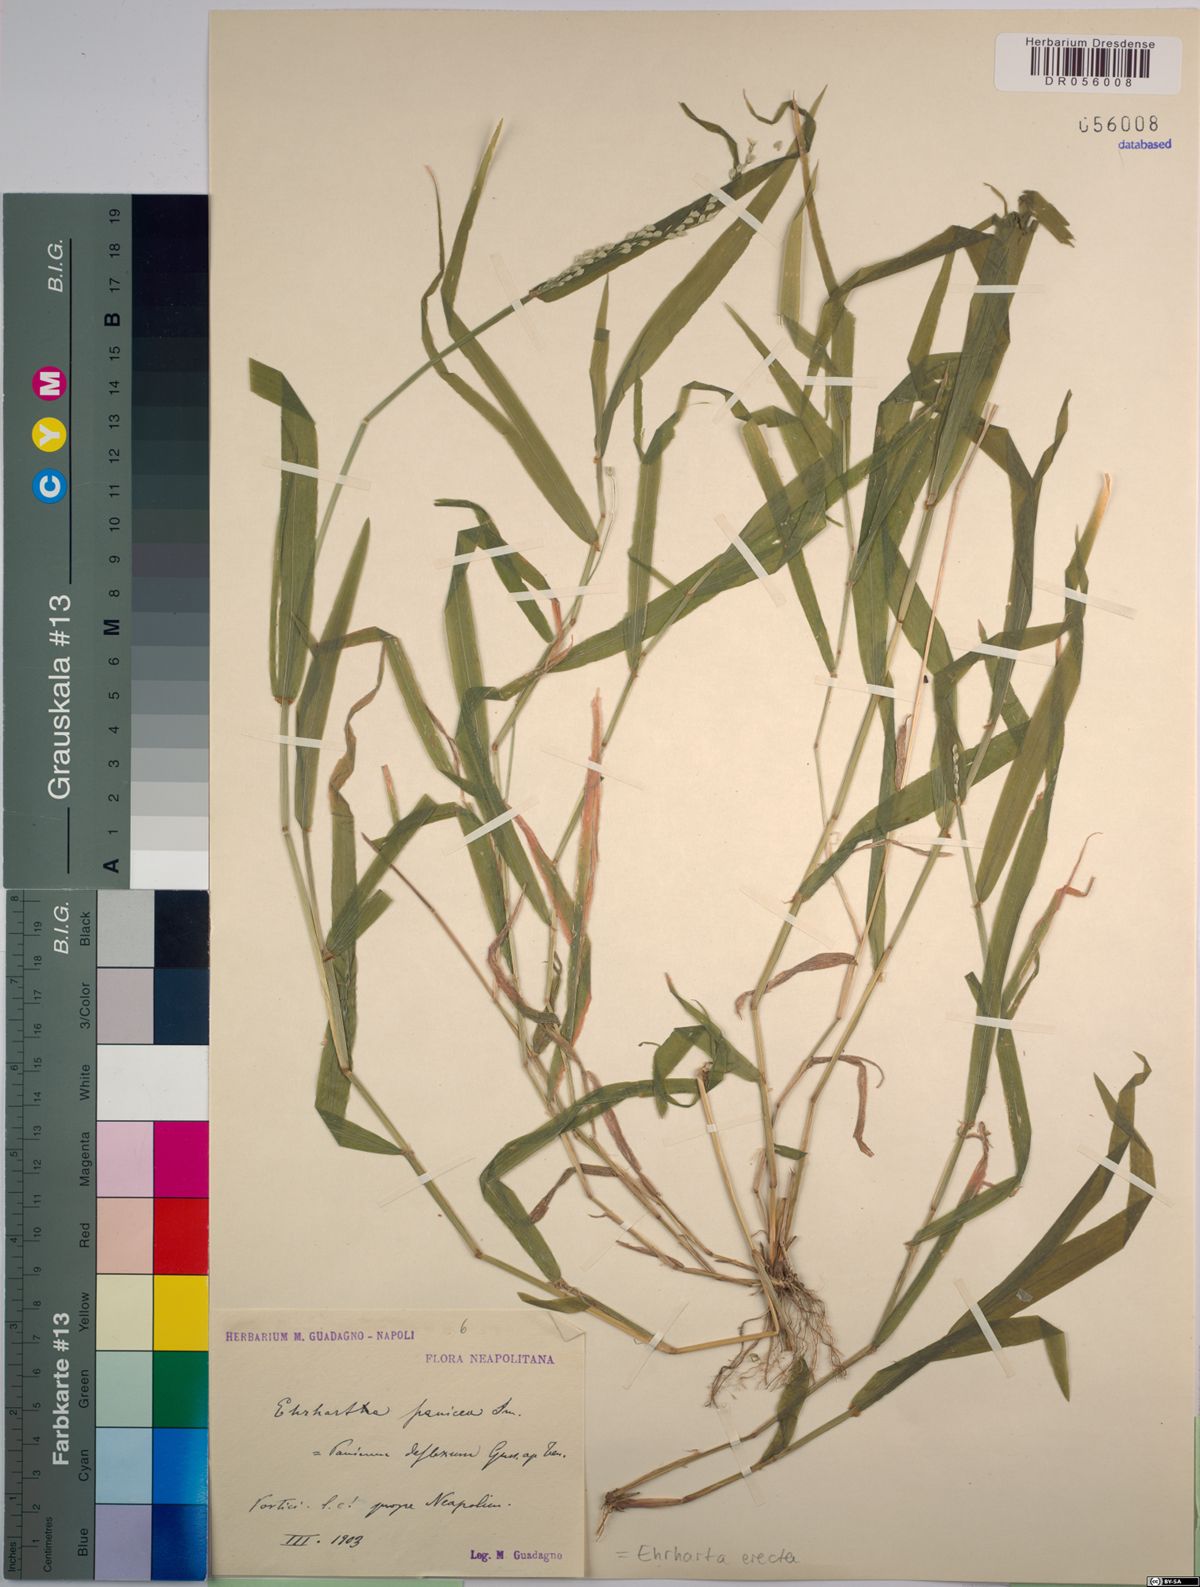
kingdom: Plantae
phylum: Tracheophyta
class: Liliopsida
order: Poales
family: Poaceae
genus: Ehrharta
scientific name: Ehrharta erecta
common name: Panic veldtgrass
